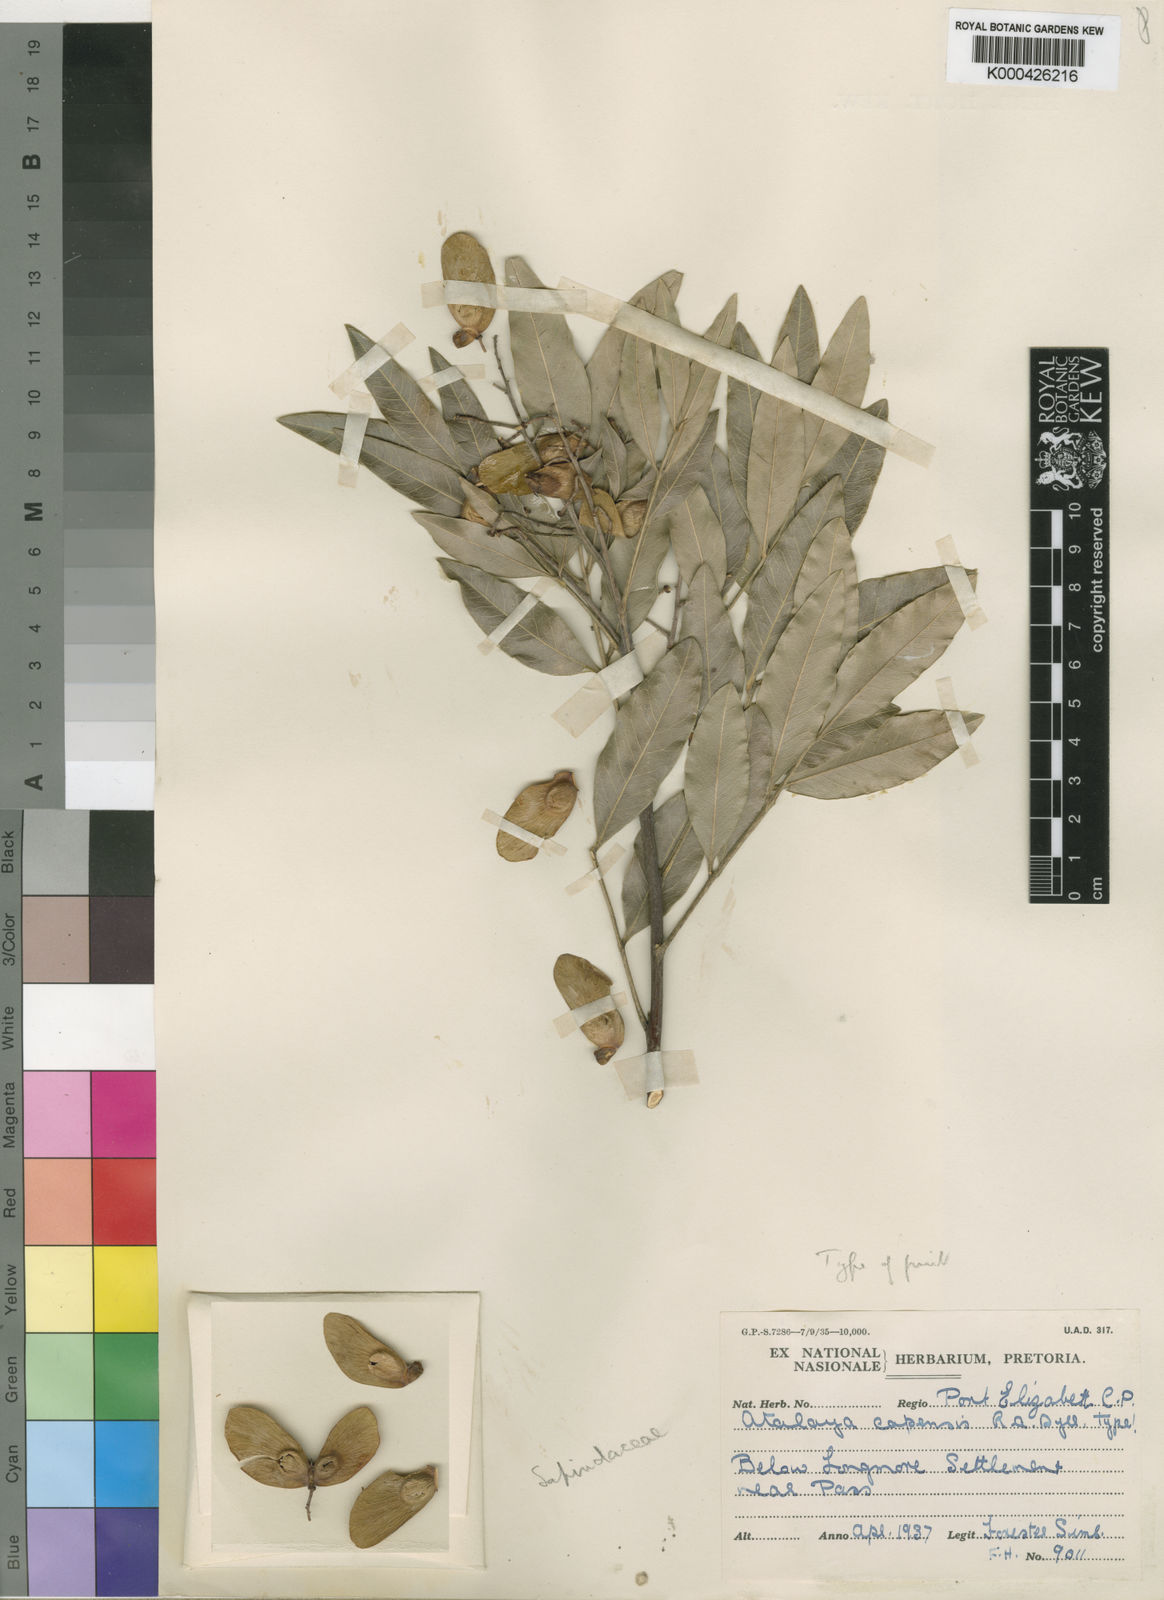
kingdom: Plantae
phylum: Tracheophyta
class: Magnoliopsida
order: Sapindales
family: Sapindaceae
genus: Atalaya
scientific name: Atalaya capensis
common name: Cape krantz ash
